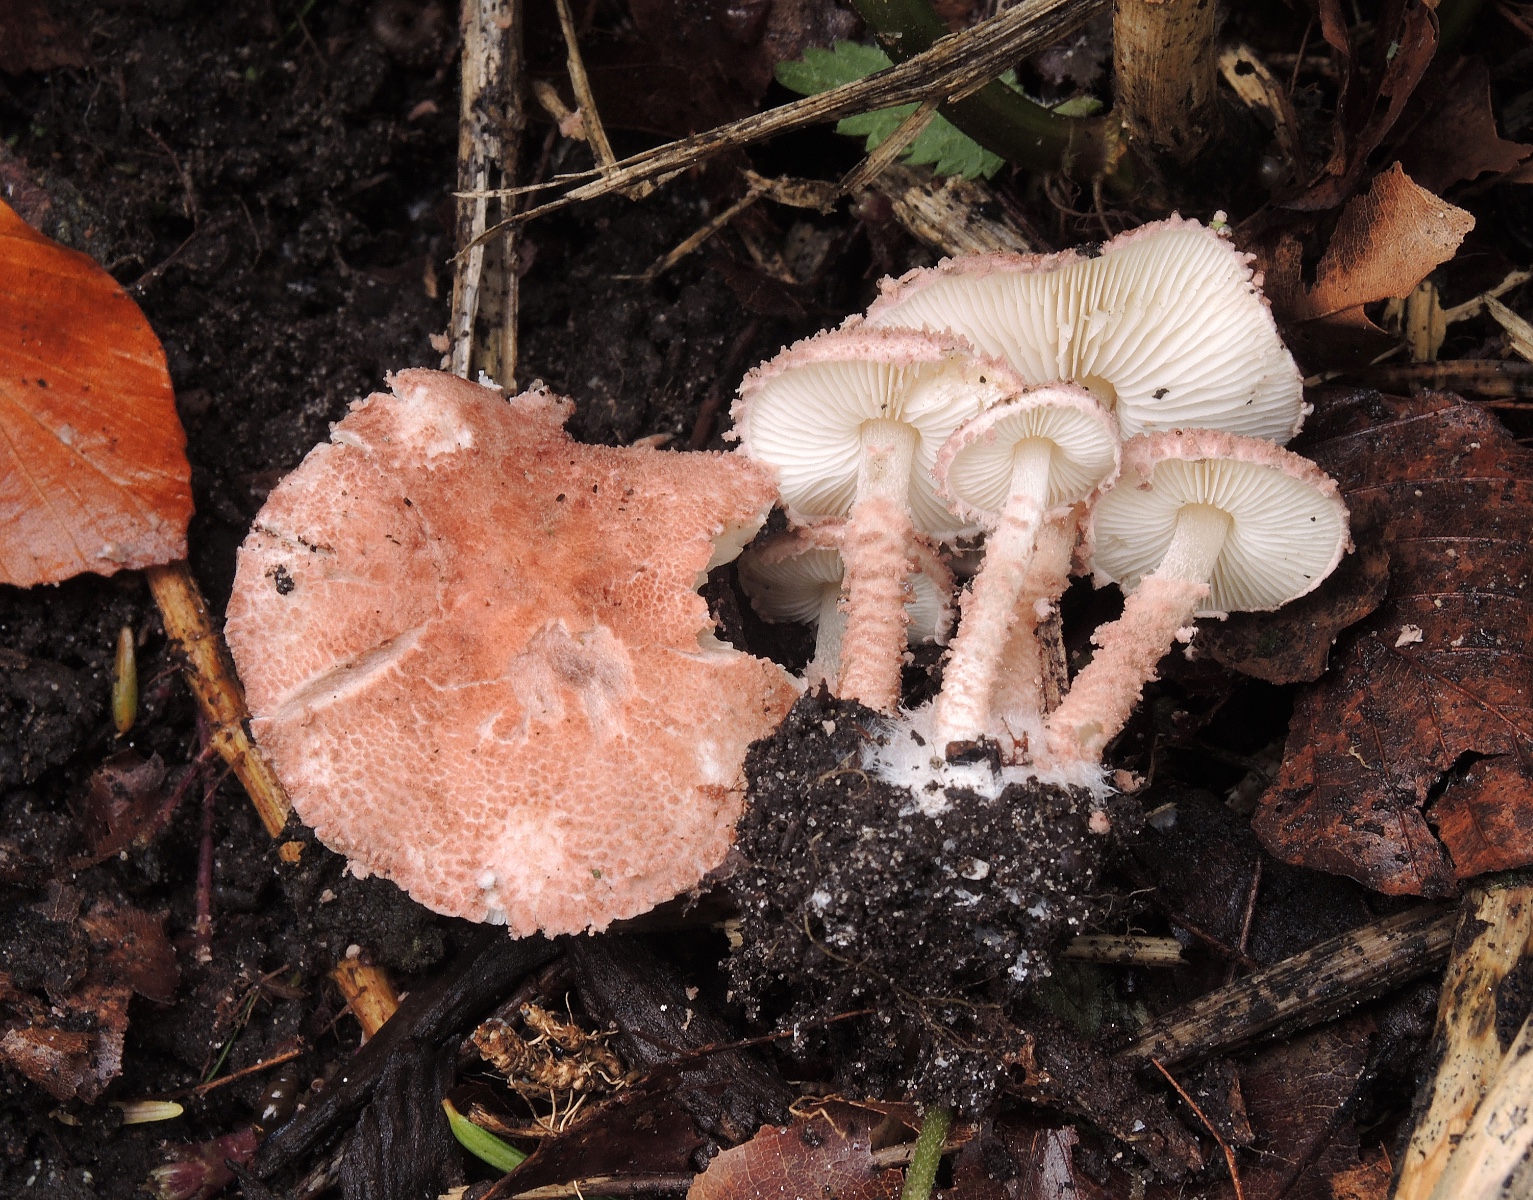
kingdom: Fungi
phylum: Basidiomycota
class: Agaricomycetes
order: Agaricales
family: Agaricaceae
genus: Cystolepiota
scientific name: Cystolepiota moelleri
